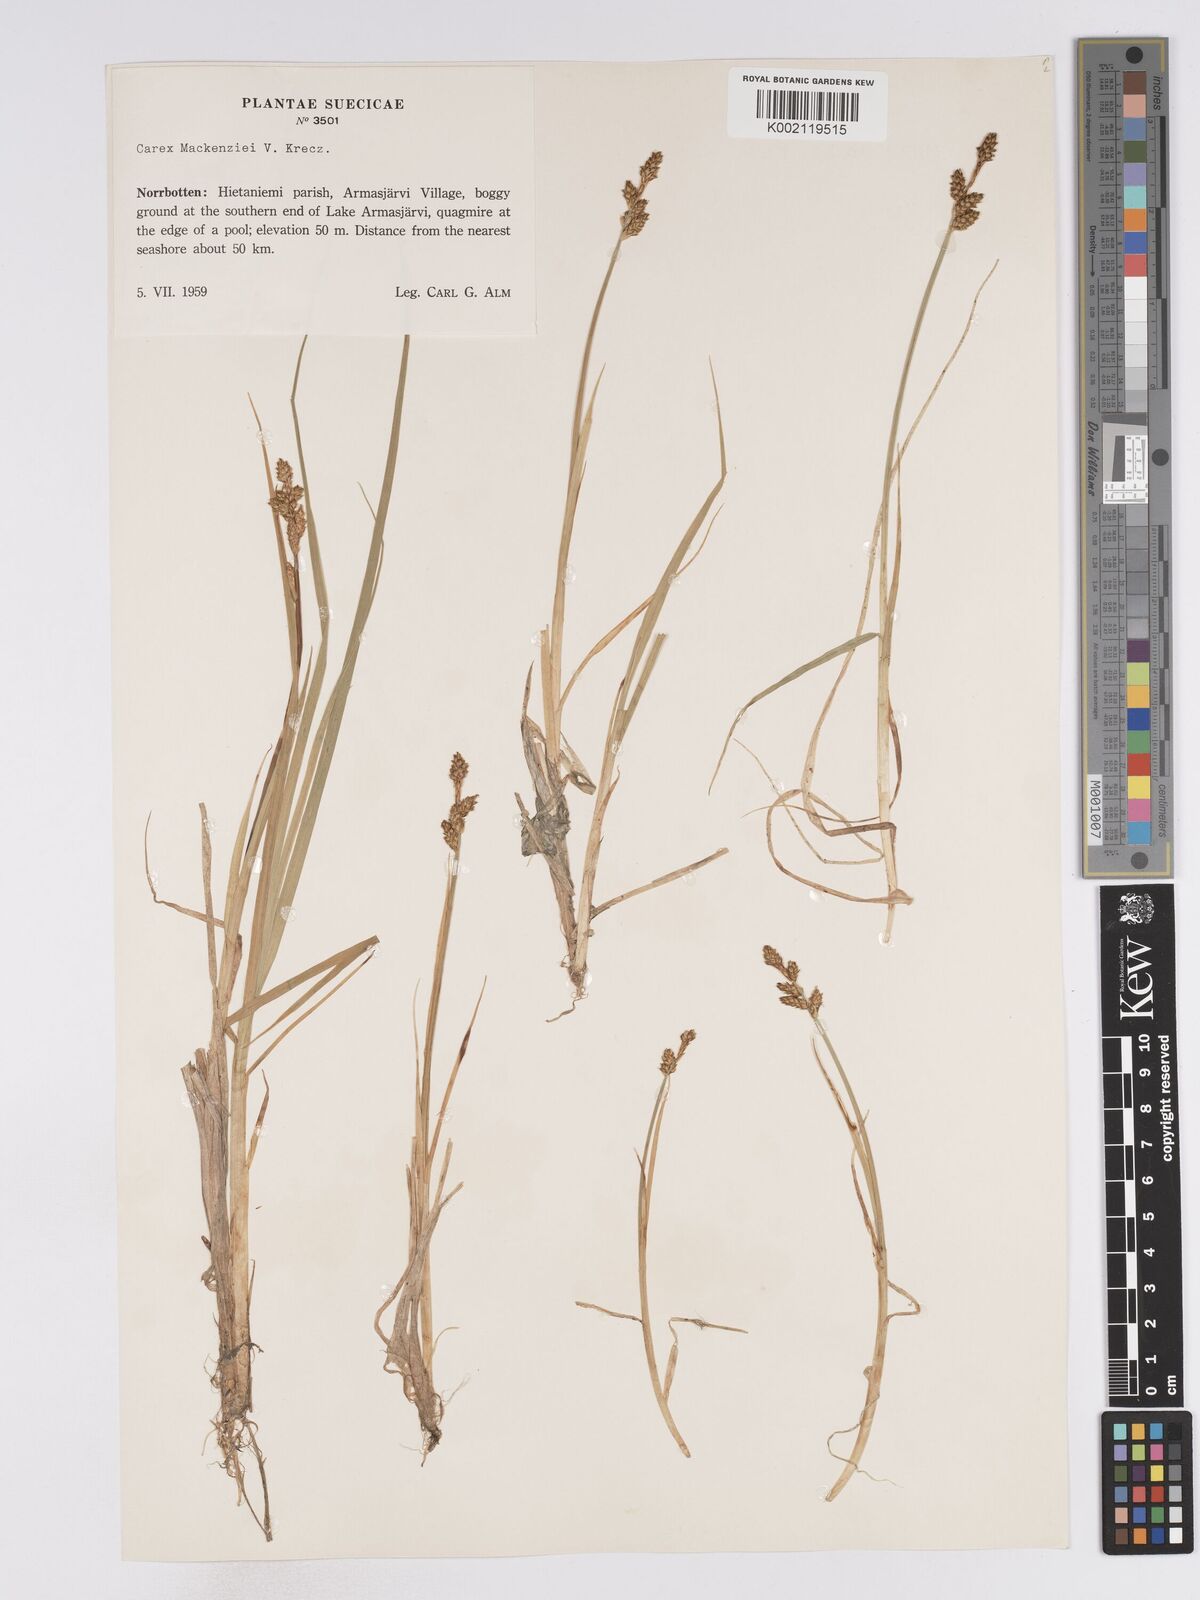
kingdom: Plantae
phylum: Tracheophyta
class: Liliopsida
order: Poales
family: Cyperaceae
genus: Carex
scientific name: Carex mackenziei
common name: Mackenzie's sedge
